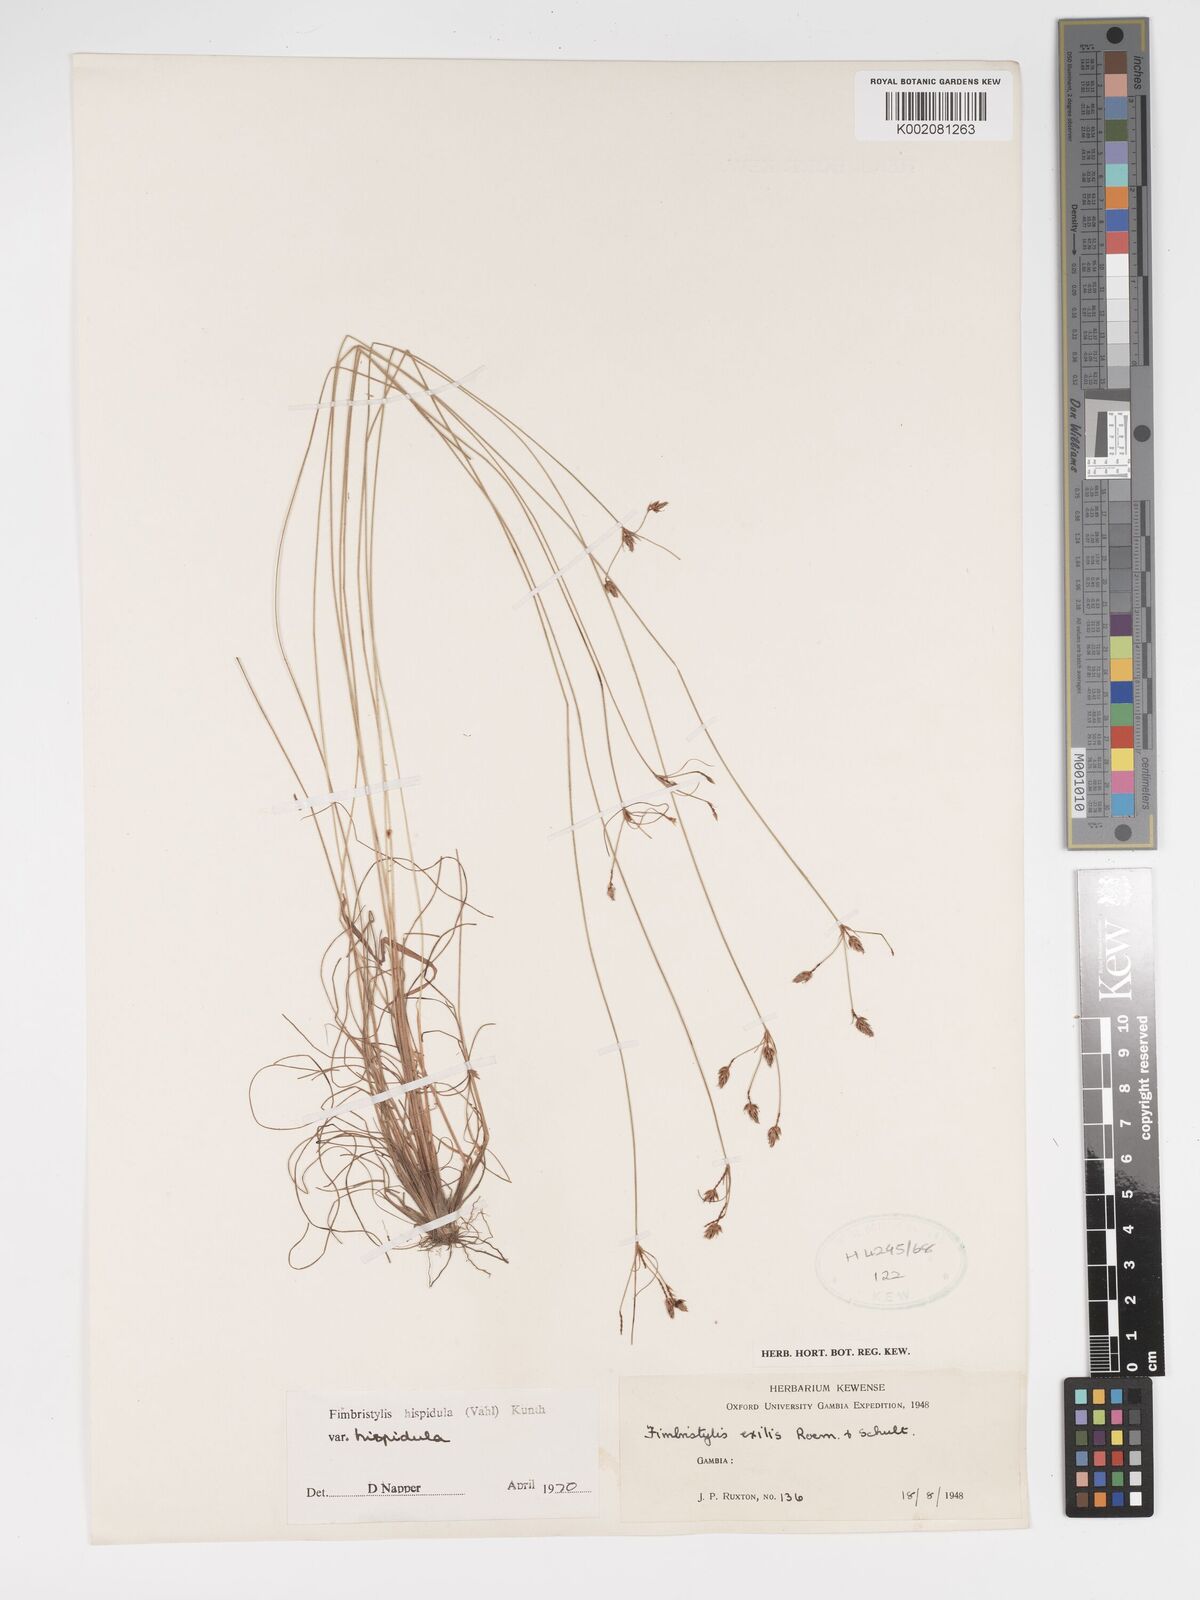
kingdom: Plantae
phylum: Tracheophyta
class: Liliopsida
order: Poales
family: Cyperaceae
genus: Bulbostylis
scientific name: Bulbostylis hispidula
